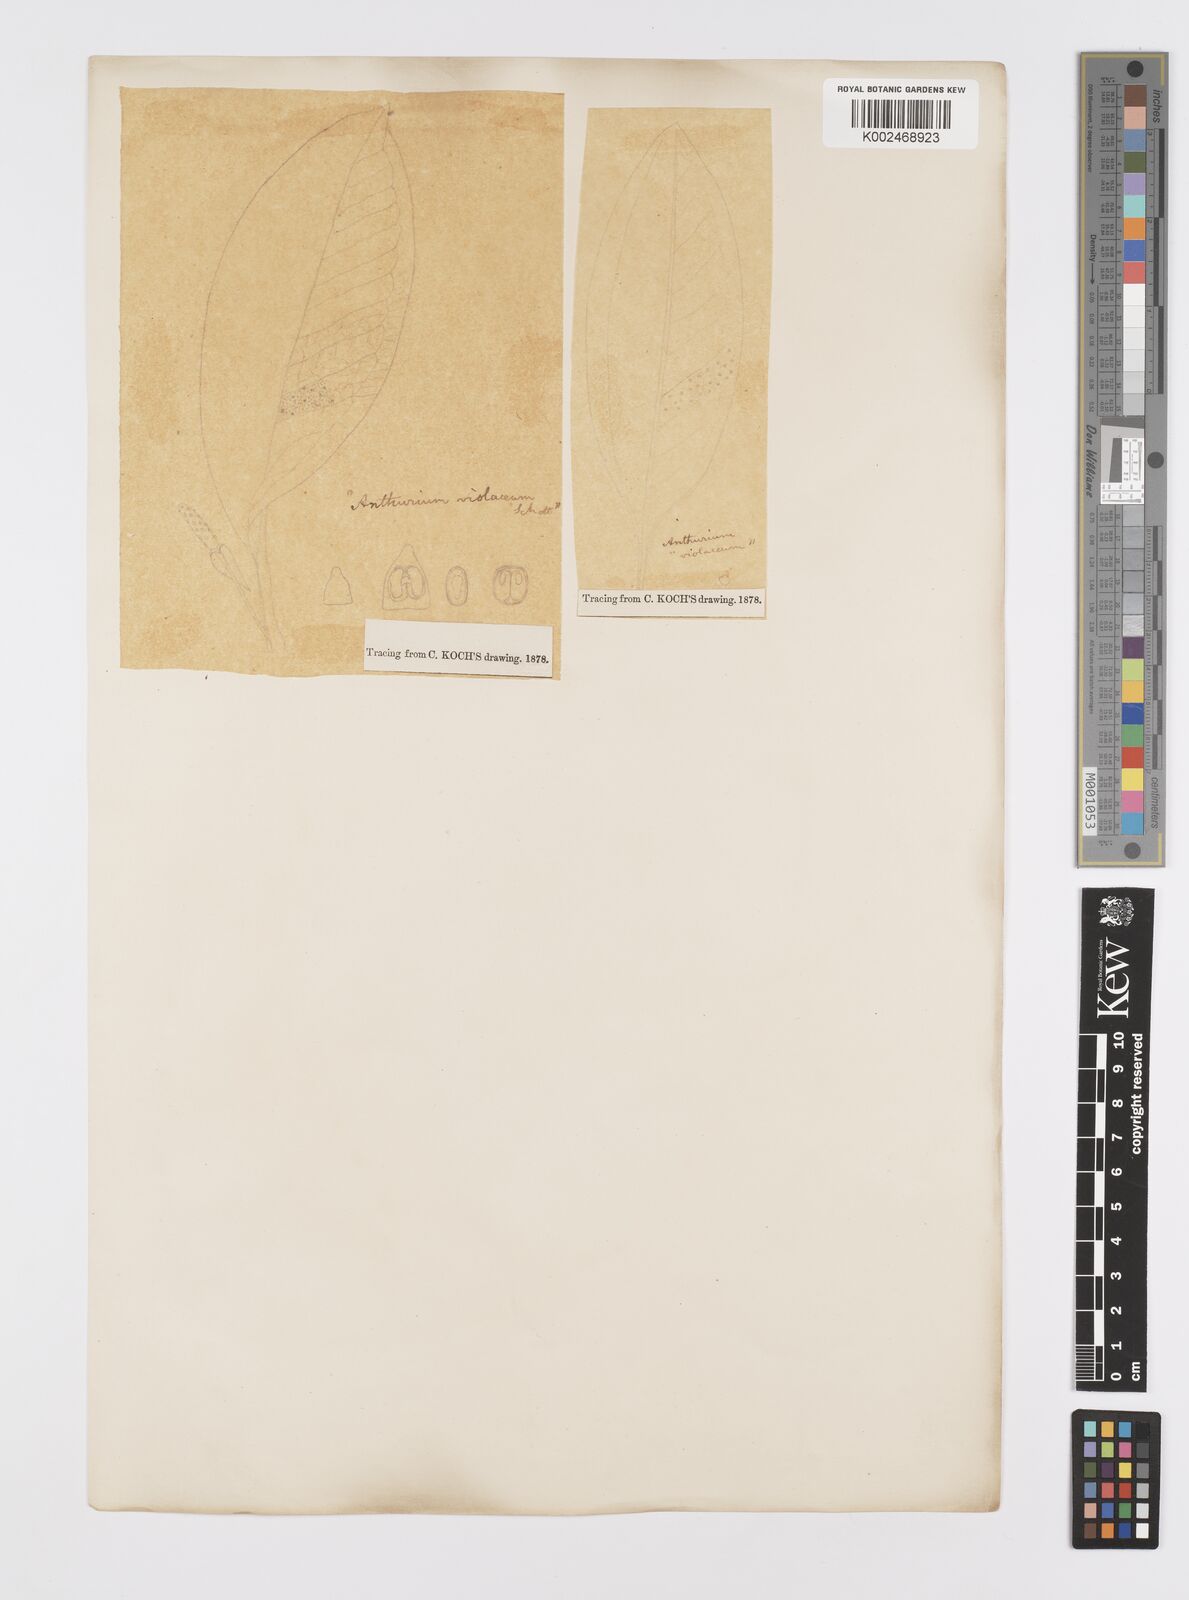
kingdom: Plantae
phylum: Tracheophyta
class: Liliopsida
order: Alismatales
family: Araceae
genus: Anthurium
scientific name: Anthurium scandens
